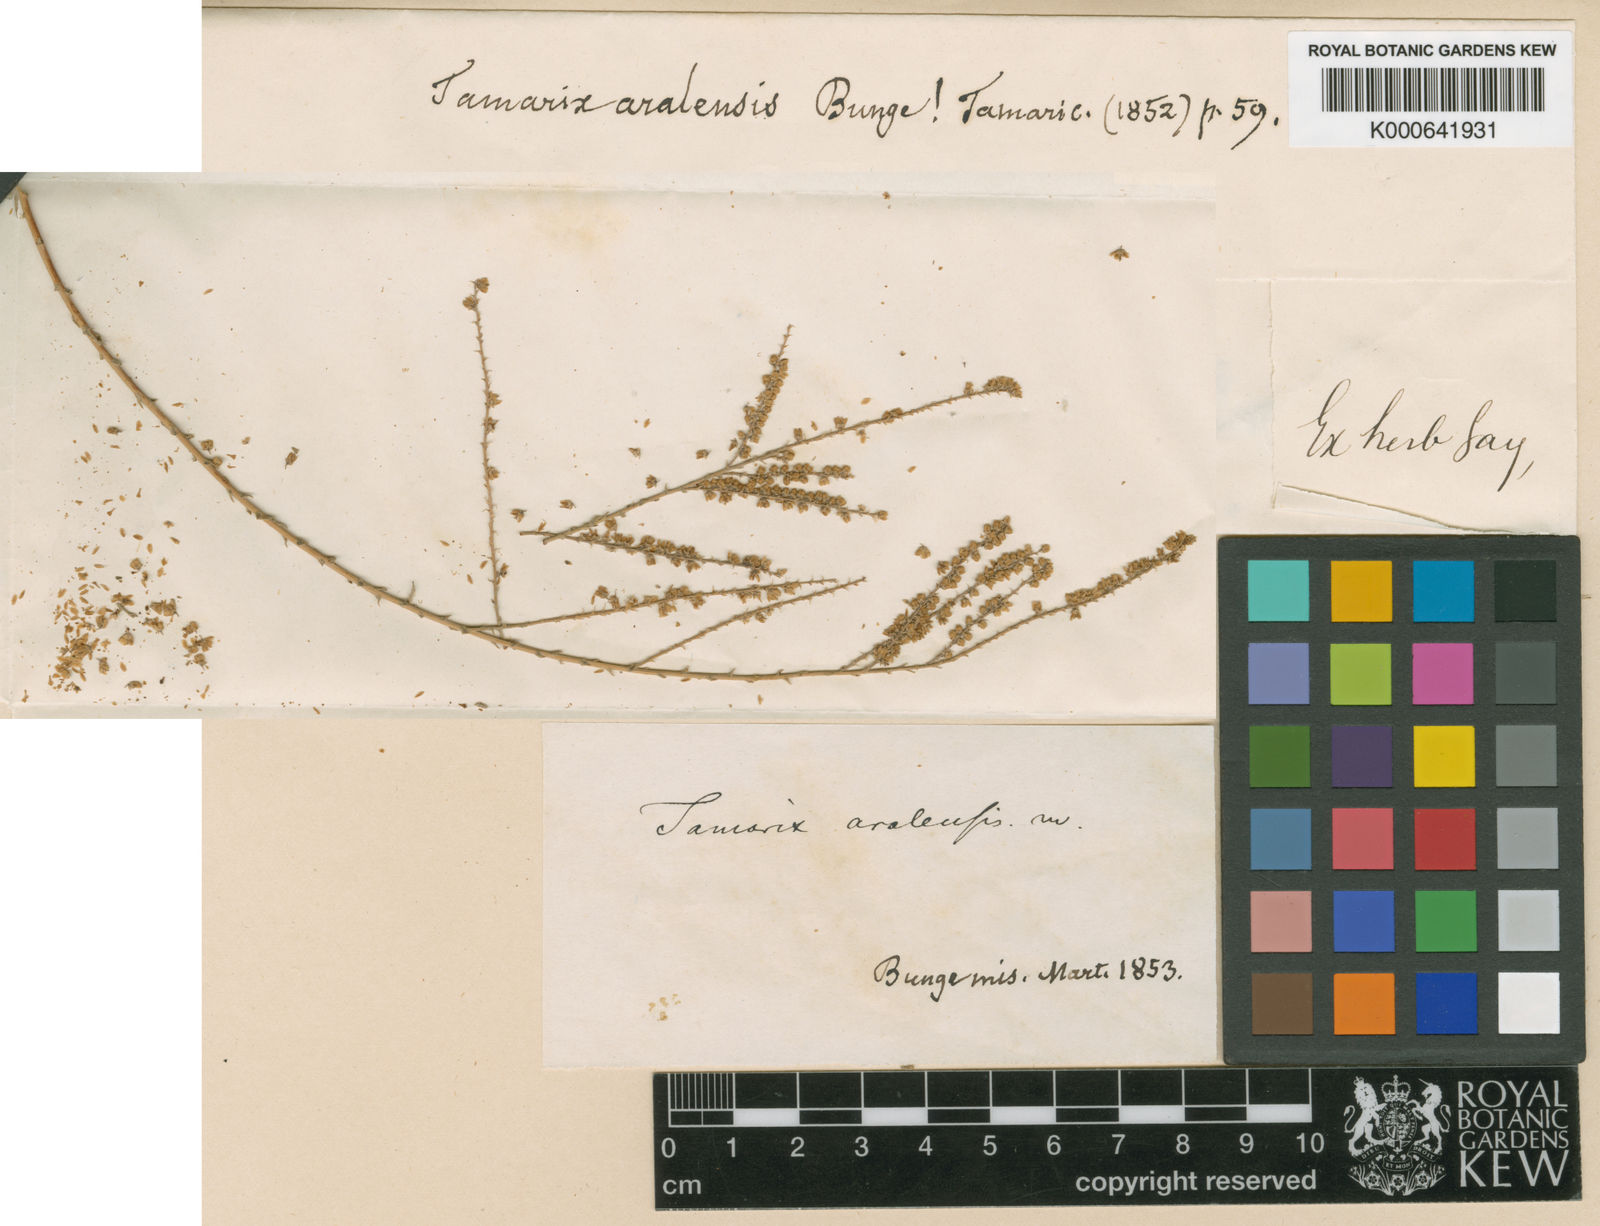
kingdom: Plantae
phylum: Tracheophyta
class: Magnoliopsida
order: Caryophyllales
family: Tamaricaceae
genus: Tamarix
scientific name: Tamarix aralensis
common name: Russian tamarisk
